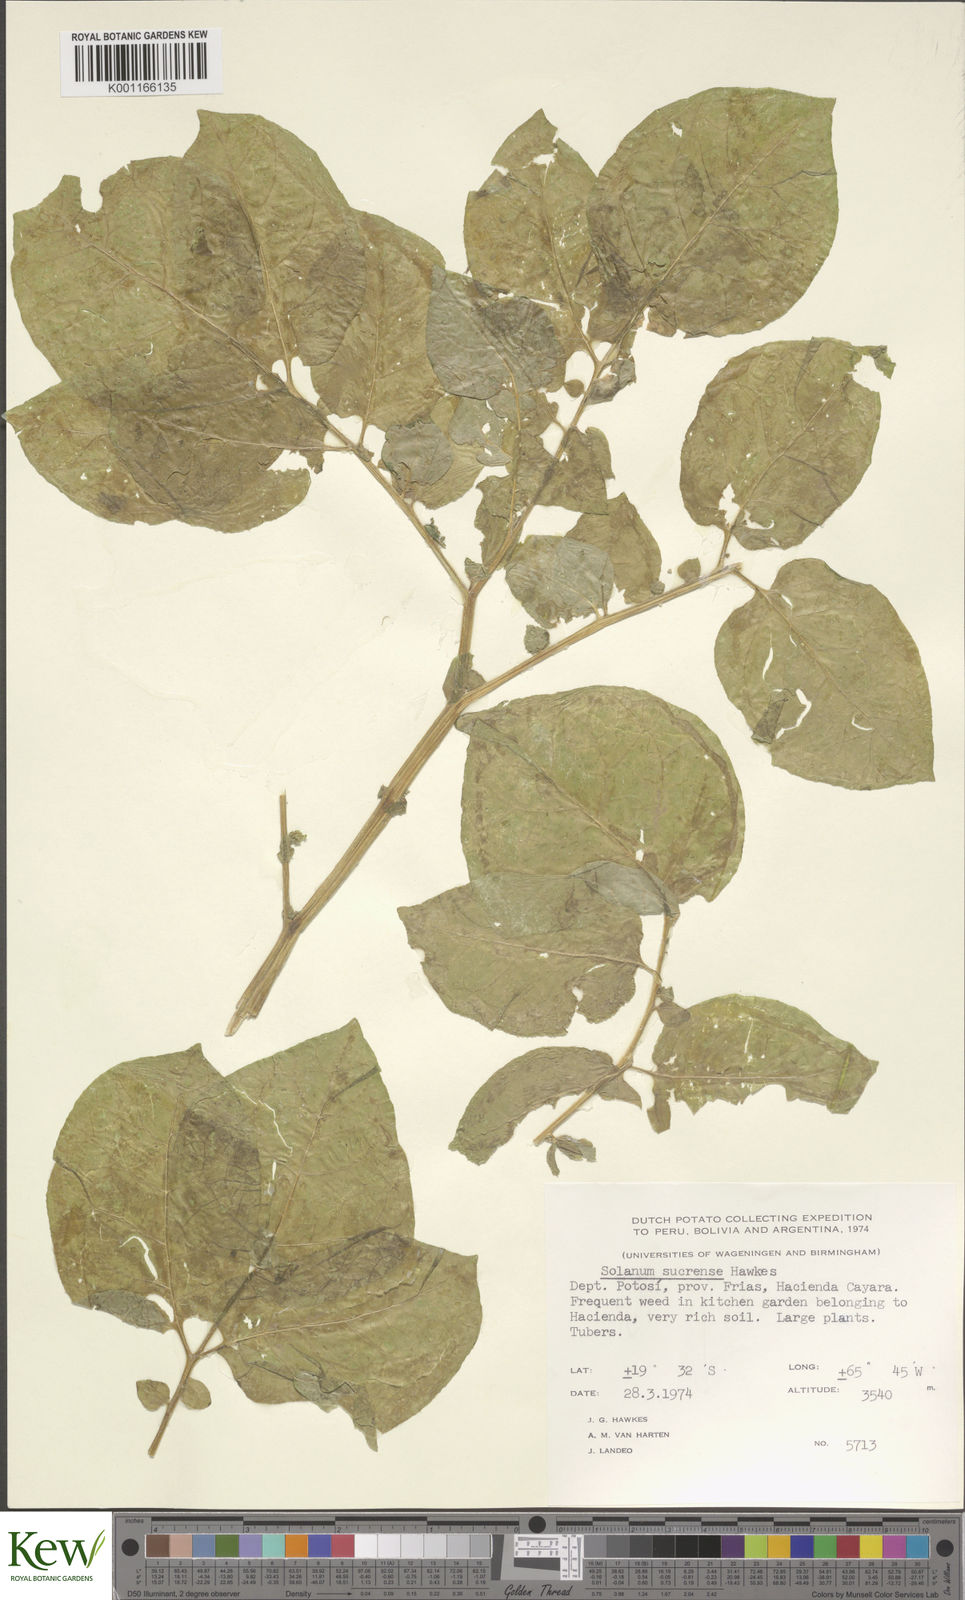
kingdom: Plantae
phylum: Tracheophyta
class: Magnoliopsida
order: Solanales
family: Solanaceae
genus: Solanum
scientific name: Solanum brevicaule
